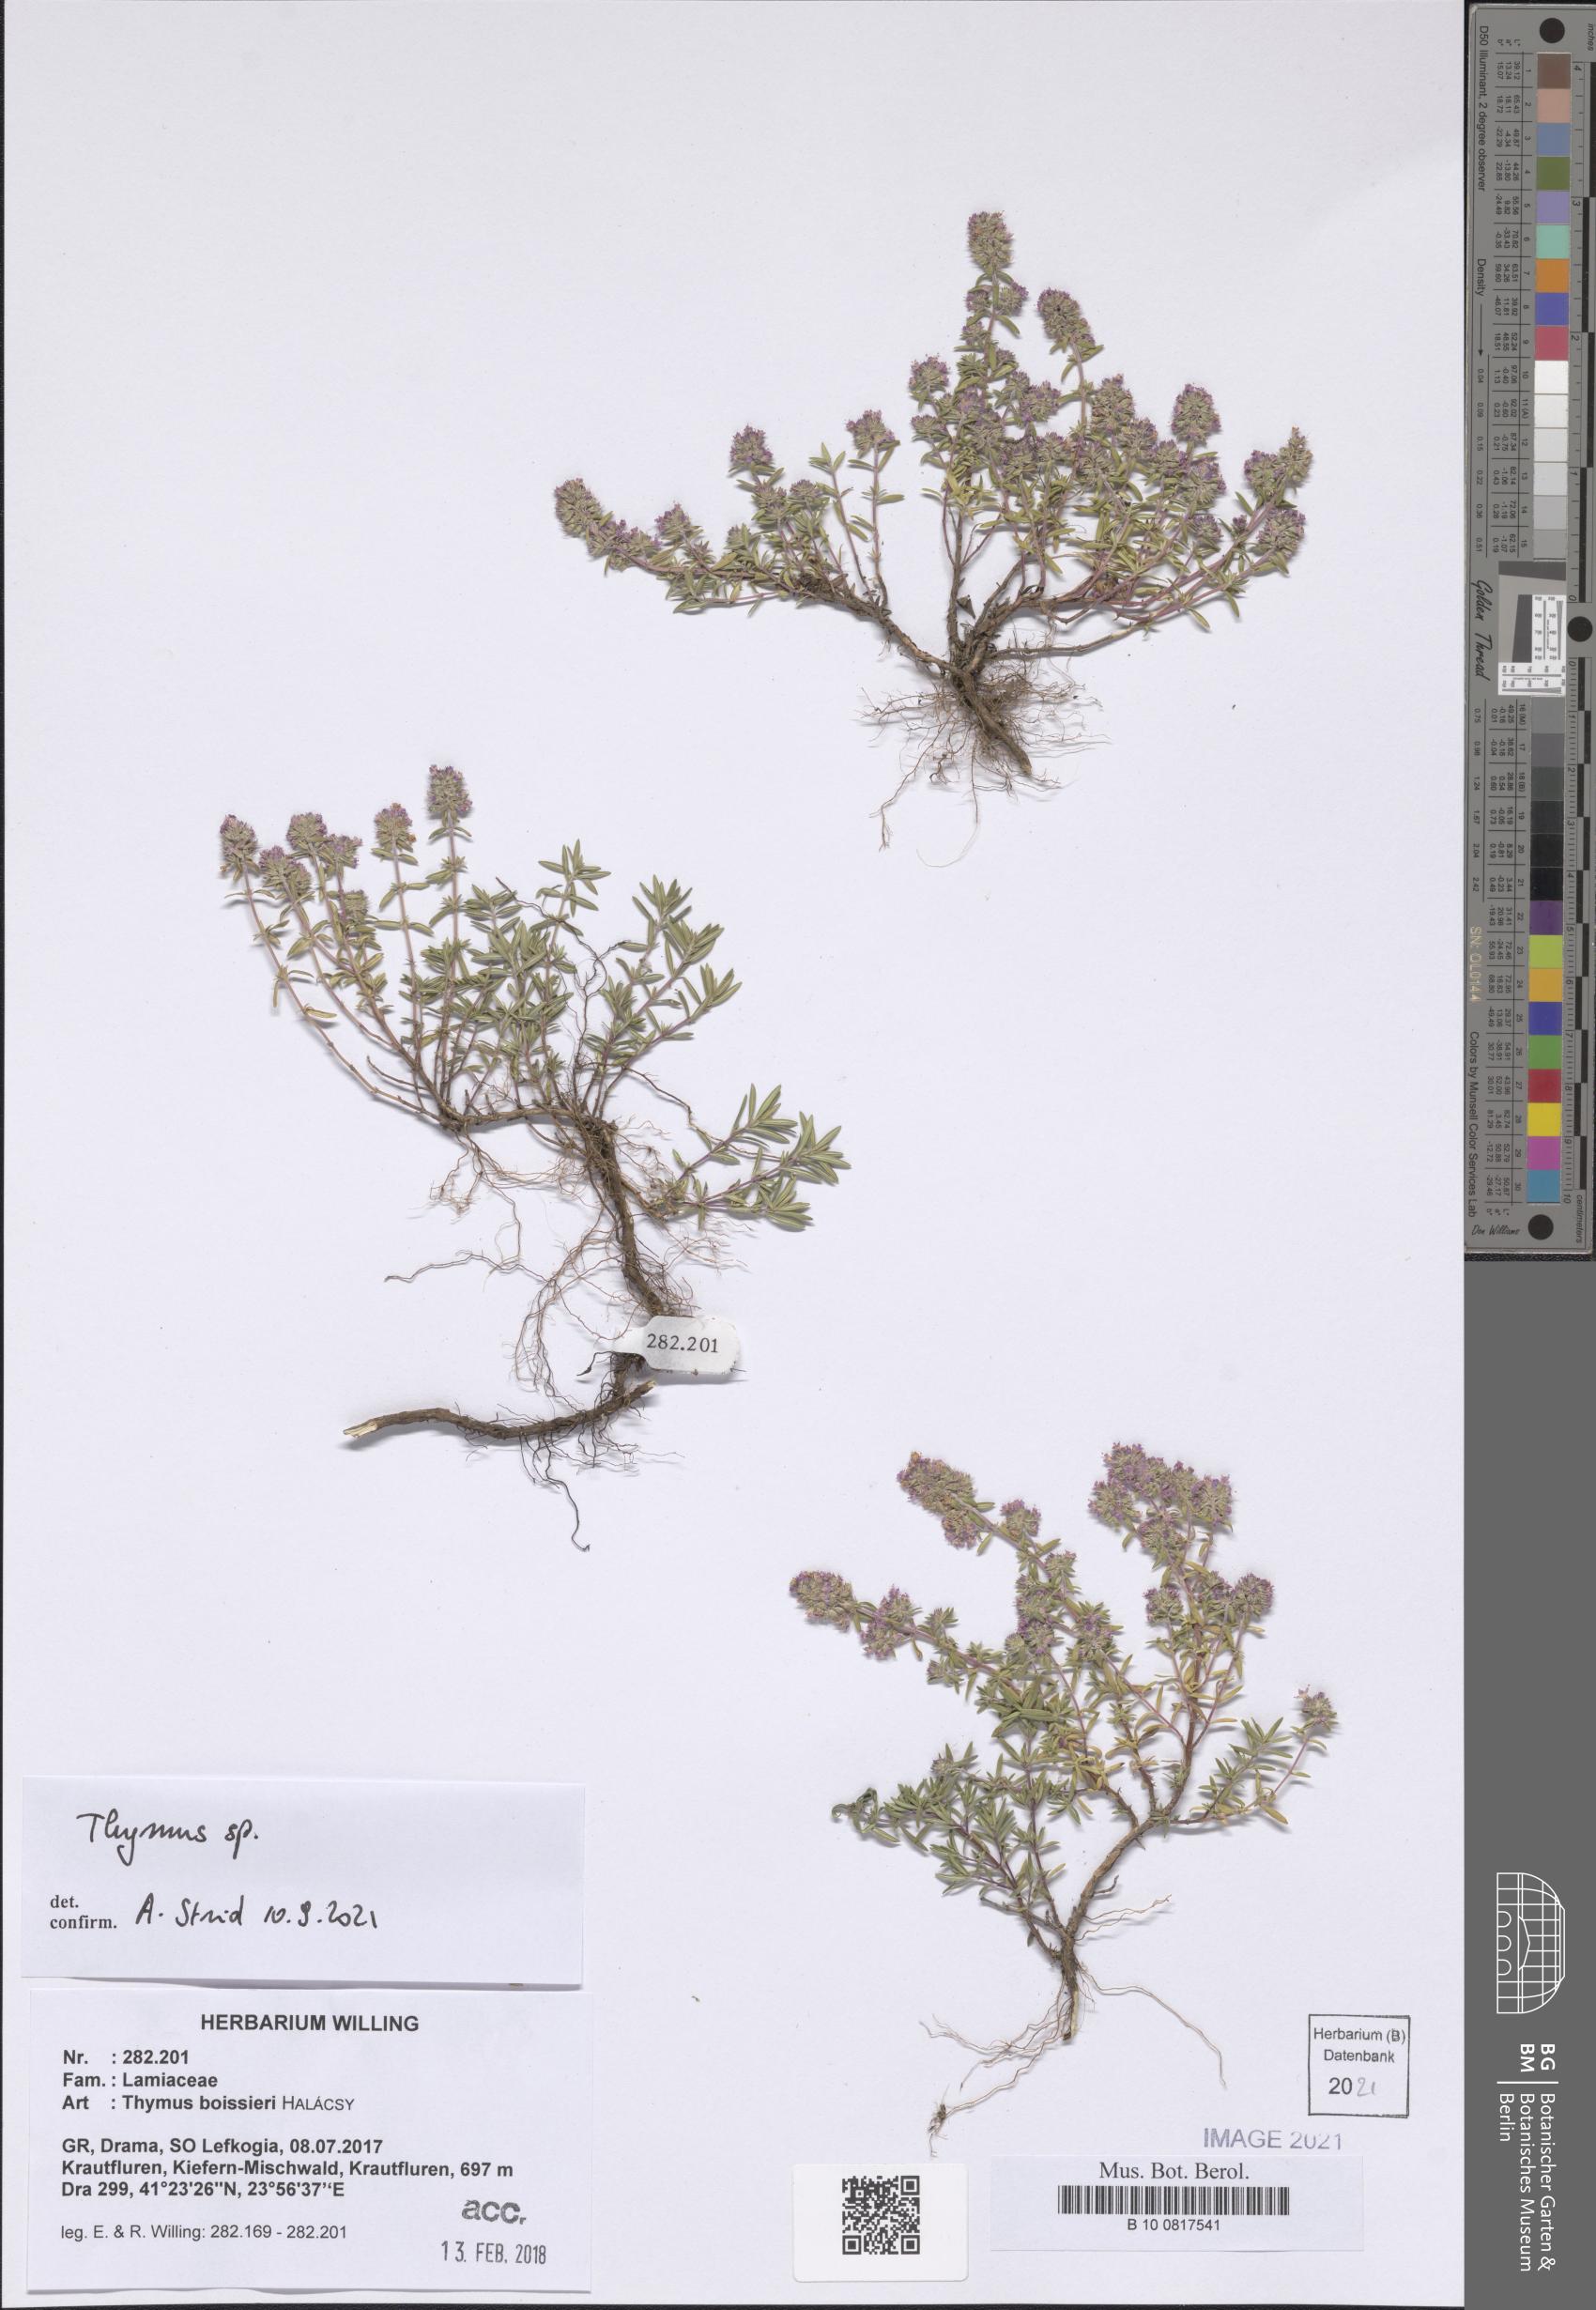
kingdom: Plantae
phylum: Tracheophyta
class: Magnoliopsida
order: Lamiales
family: Lamiaceae
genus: Thymus
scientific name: Thymus
